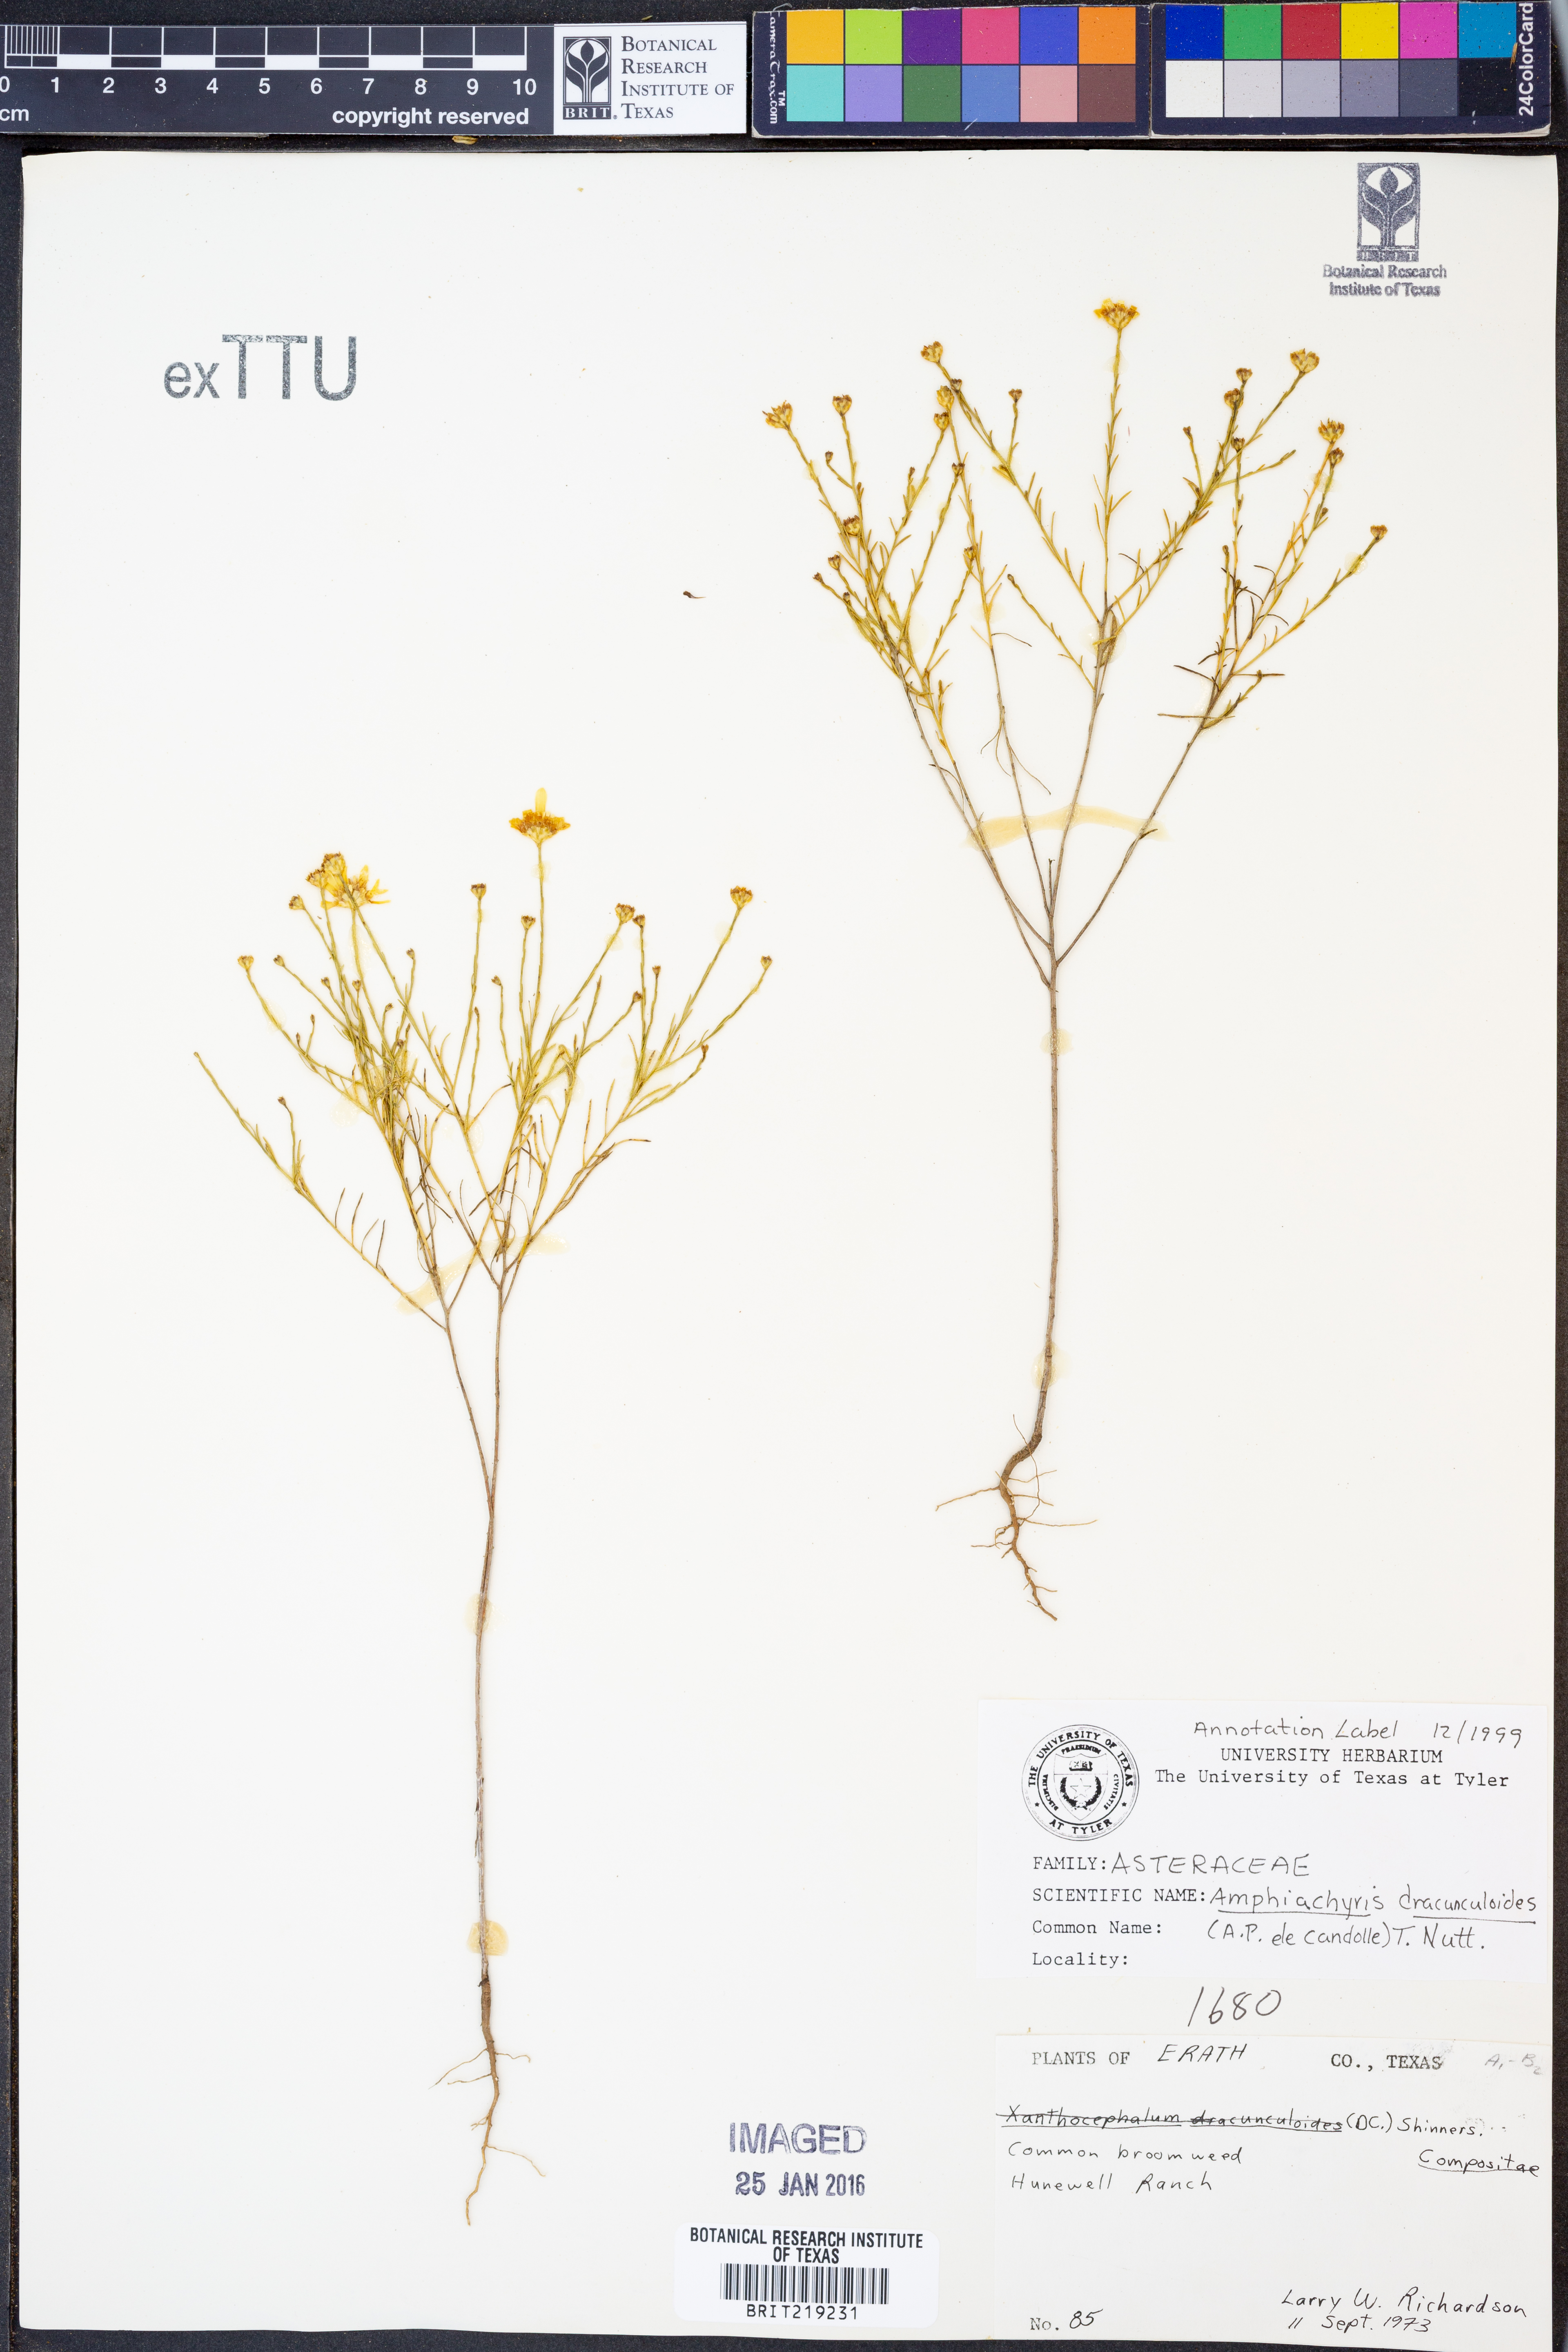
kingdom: Plantae
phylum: Tracheophyta
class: Magnoliopsida
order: Asterales
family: Asteraceae
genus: Amphiachyris
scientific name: Amphiachyris dracunculoides
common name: Broomweed
